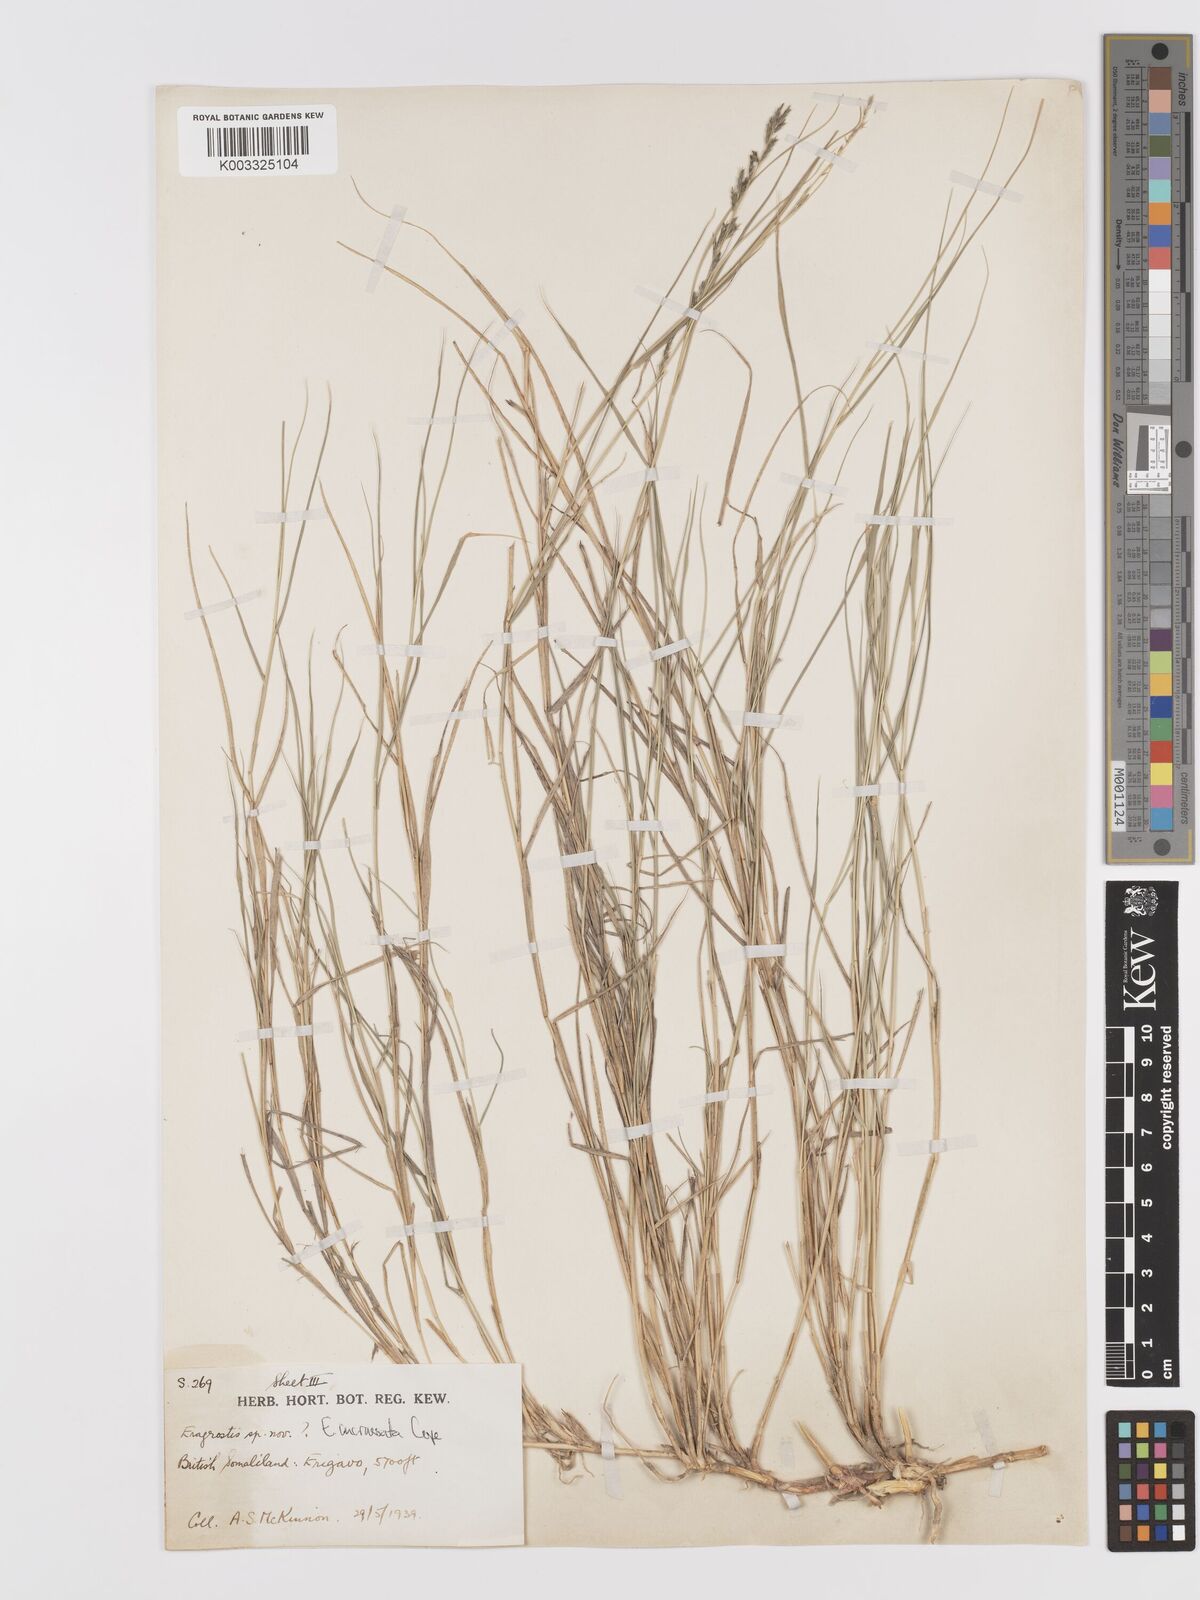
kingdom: Plantae
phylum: Tracheophyta
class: Liliopsida
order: Poales
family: Poaceae
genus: Eragrostis
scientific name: Eragrostis incrassata
